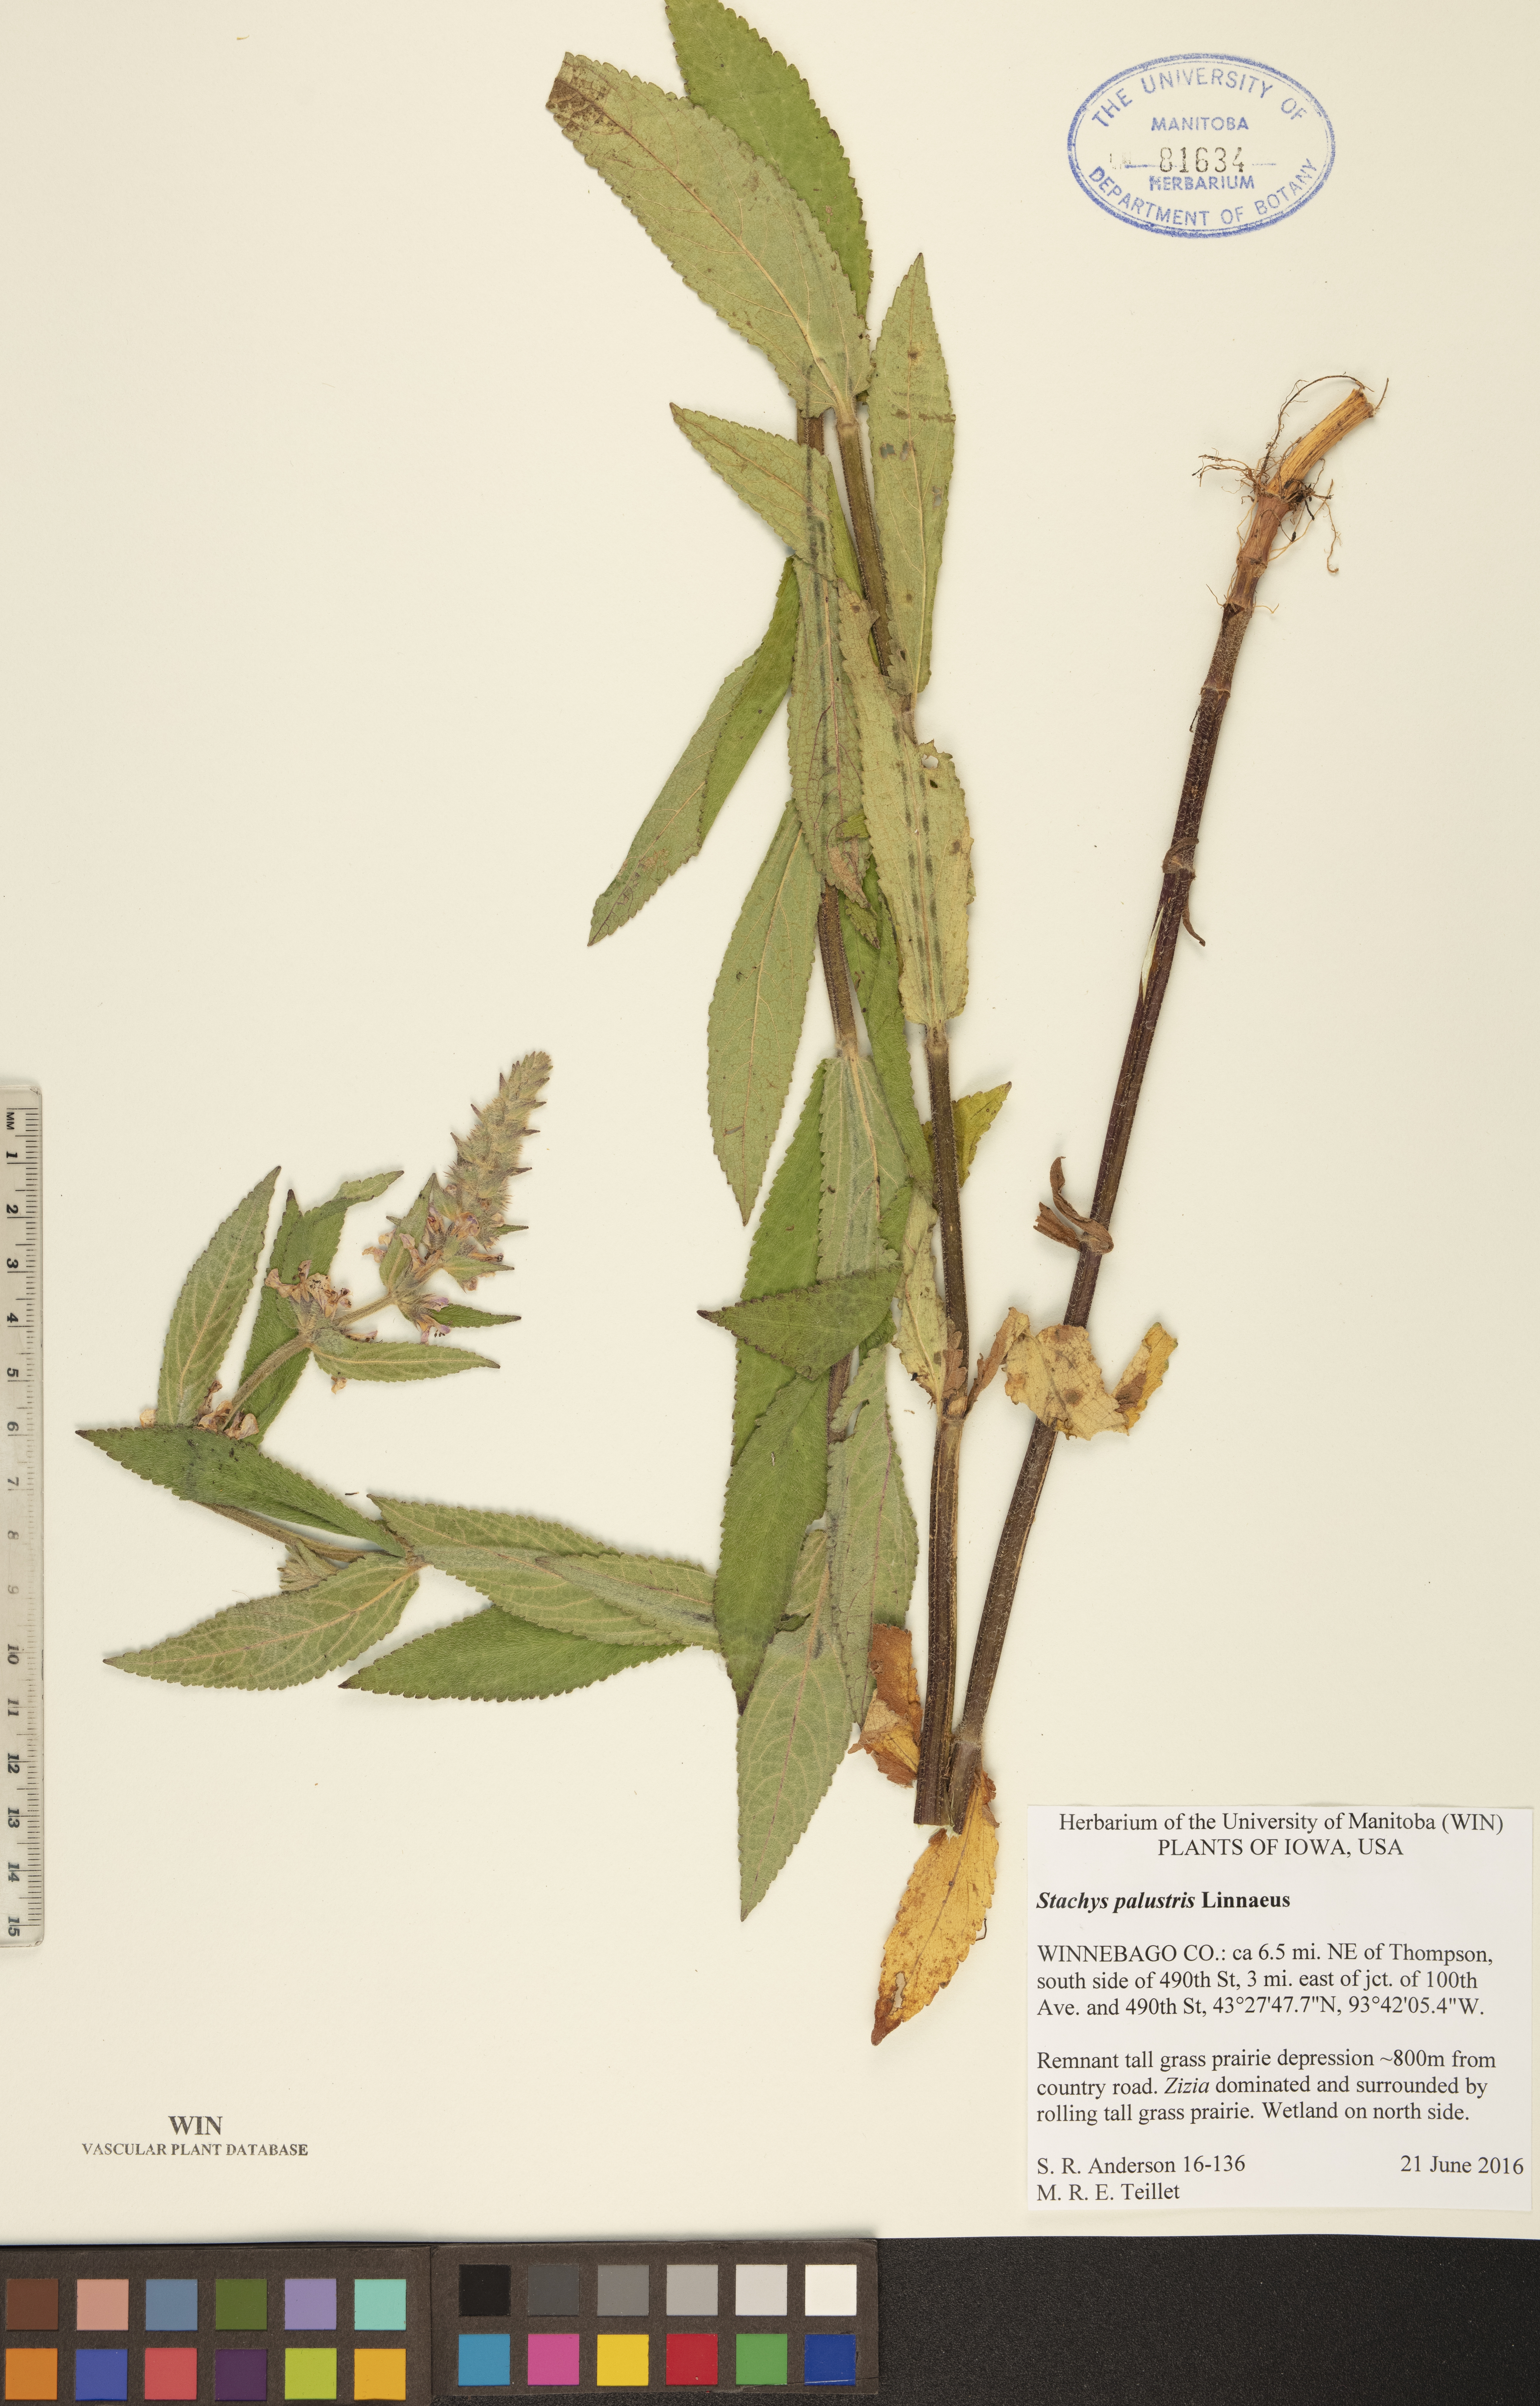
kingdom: Plantae
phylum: Tracheophyta
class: Magnoliopsida
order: Lamiales
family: Lamiaceae
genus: Stachys
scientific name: Stachys palustris
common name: Marsh woundwort
